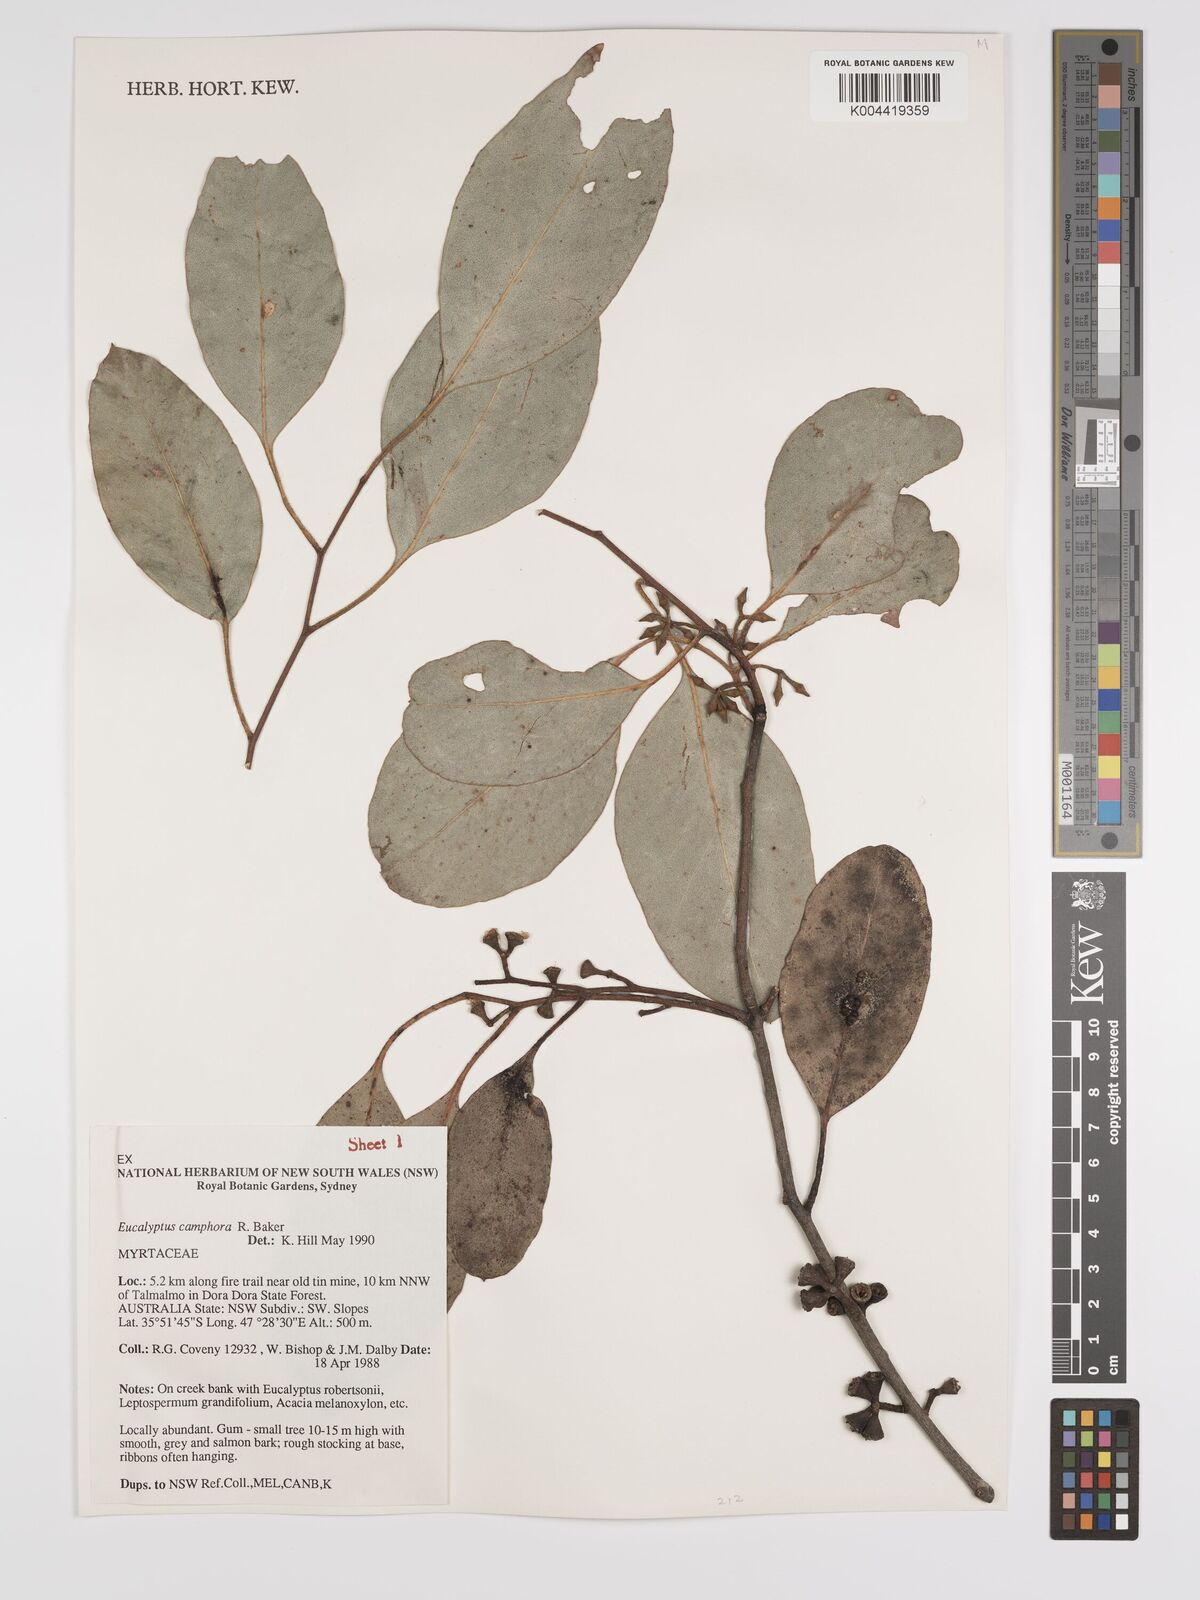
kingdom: Plantae
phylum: Tracheophyta
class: Magnoliopsida
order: Myrtales
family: Myrtaceae
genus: Eucalyptus
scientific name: Eucalyptus camphora
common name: Mountain swamp gum
